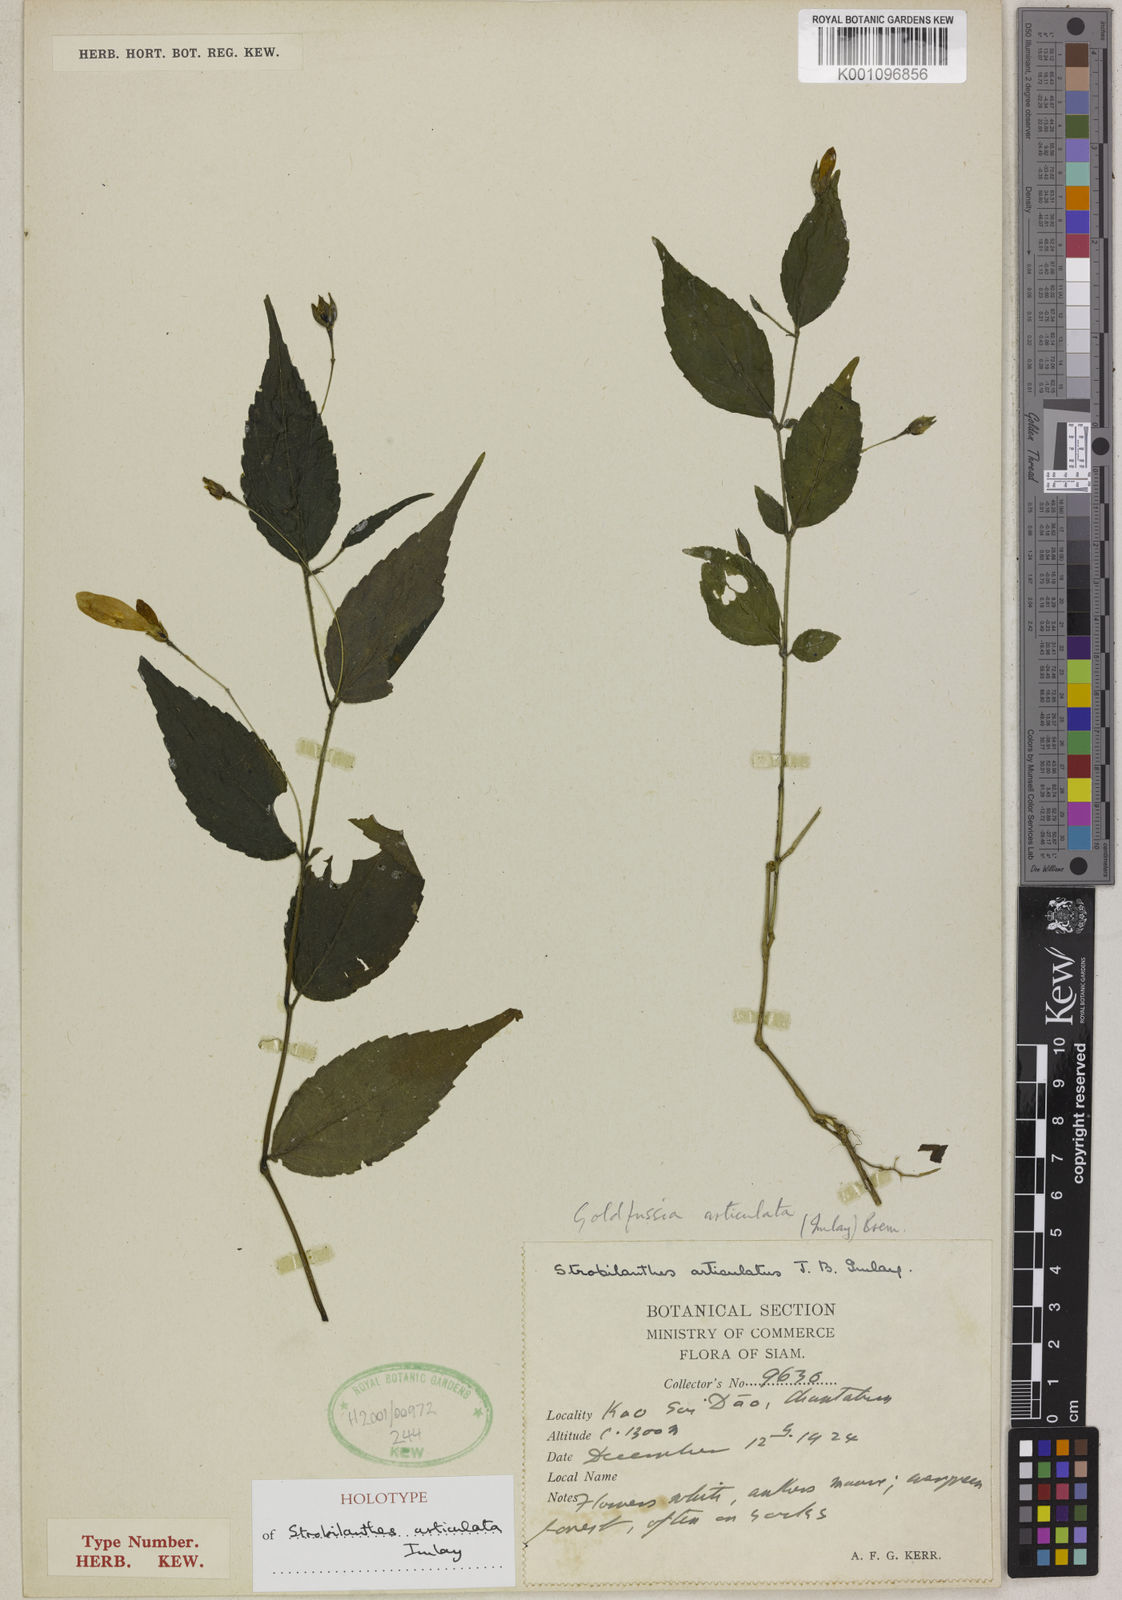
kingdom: Plantae
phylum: Tracheophyta
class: Magnoliopsida
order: Lamiales
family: Acanthaceae
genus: Strobilanthes
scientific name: Strobilanthes articulata
